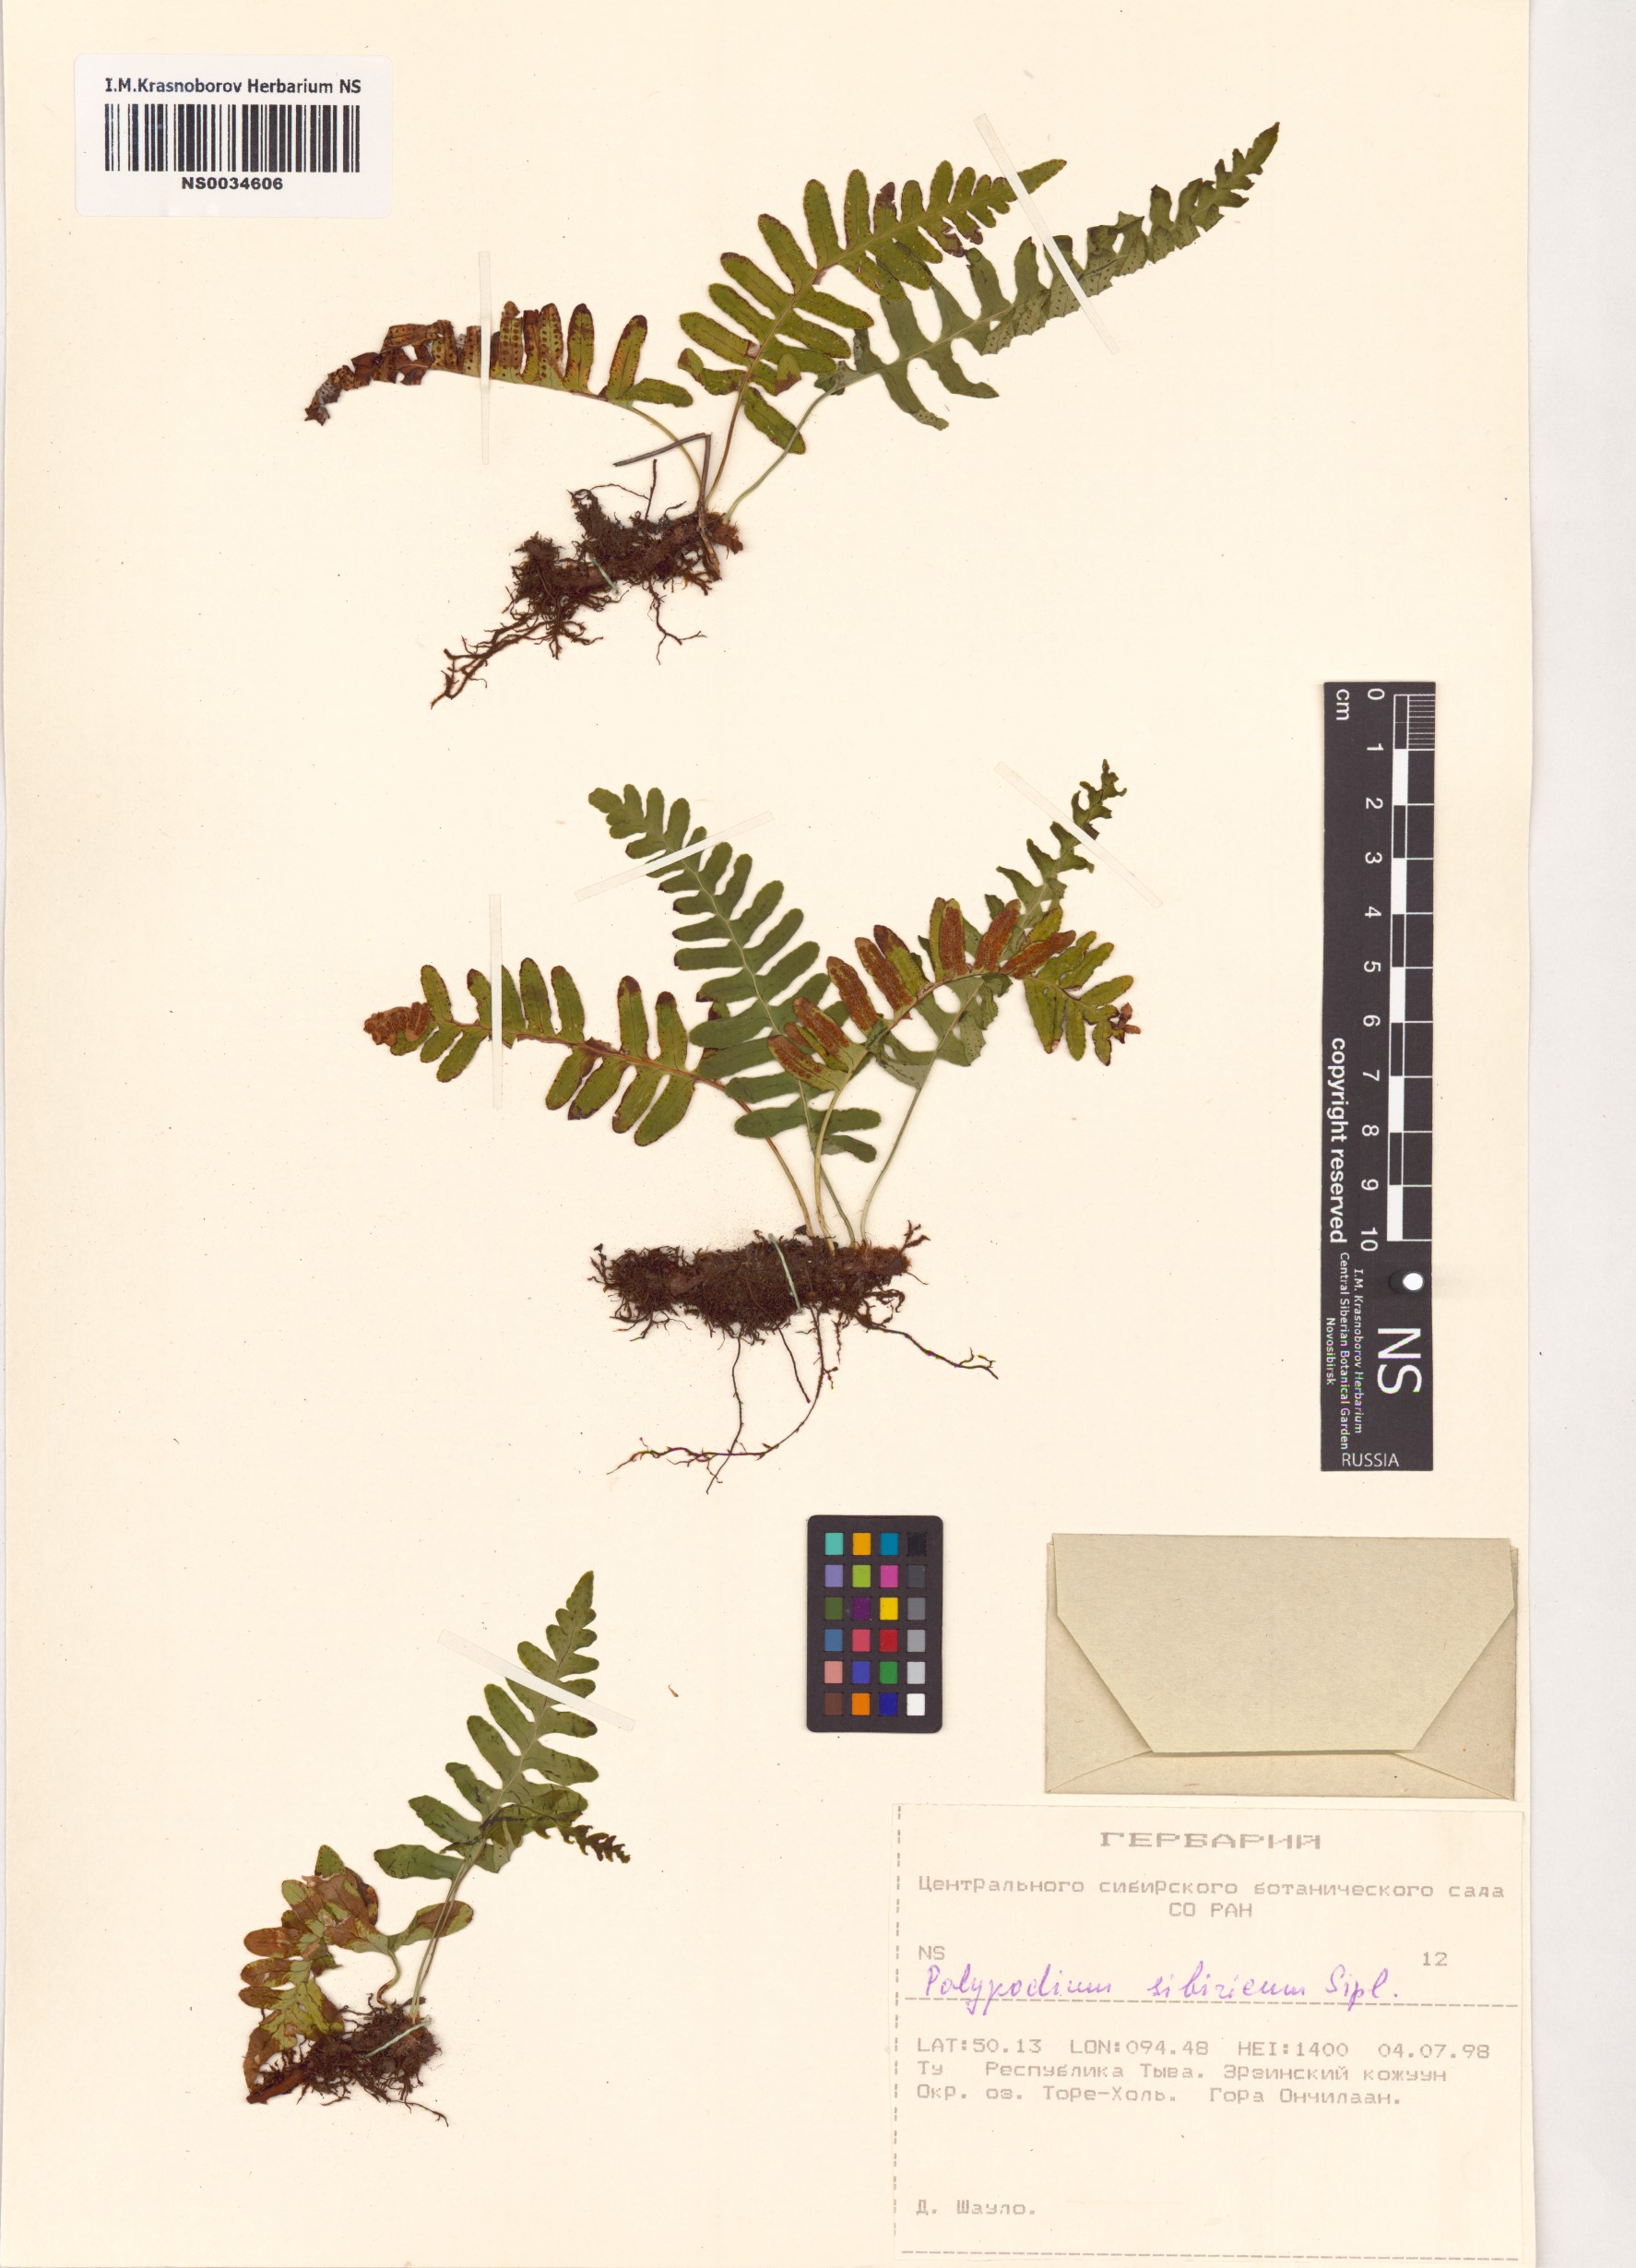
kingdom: Plantae
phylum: Tracheophyta
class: Polypodiopsida
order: Polypodiales
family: Polypodiaceae
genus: Polypodium
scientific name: Polypodium sibiricum
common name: Siberian polypody
